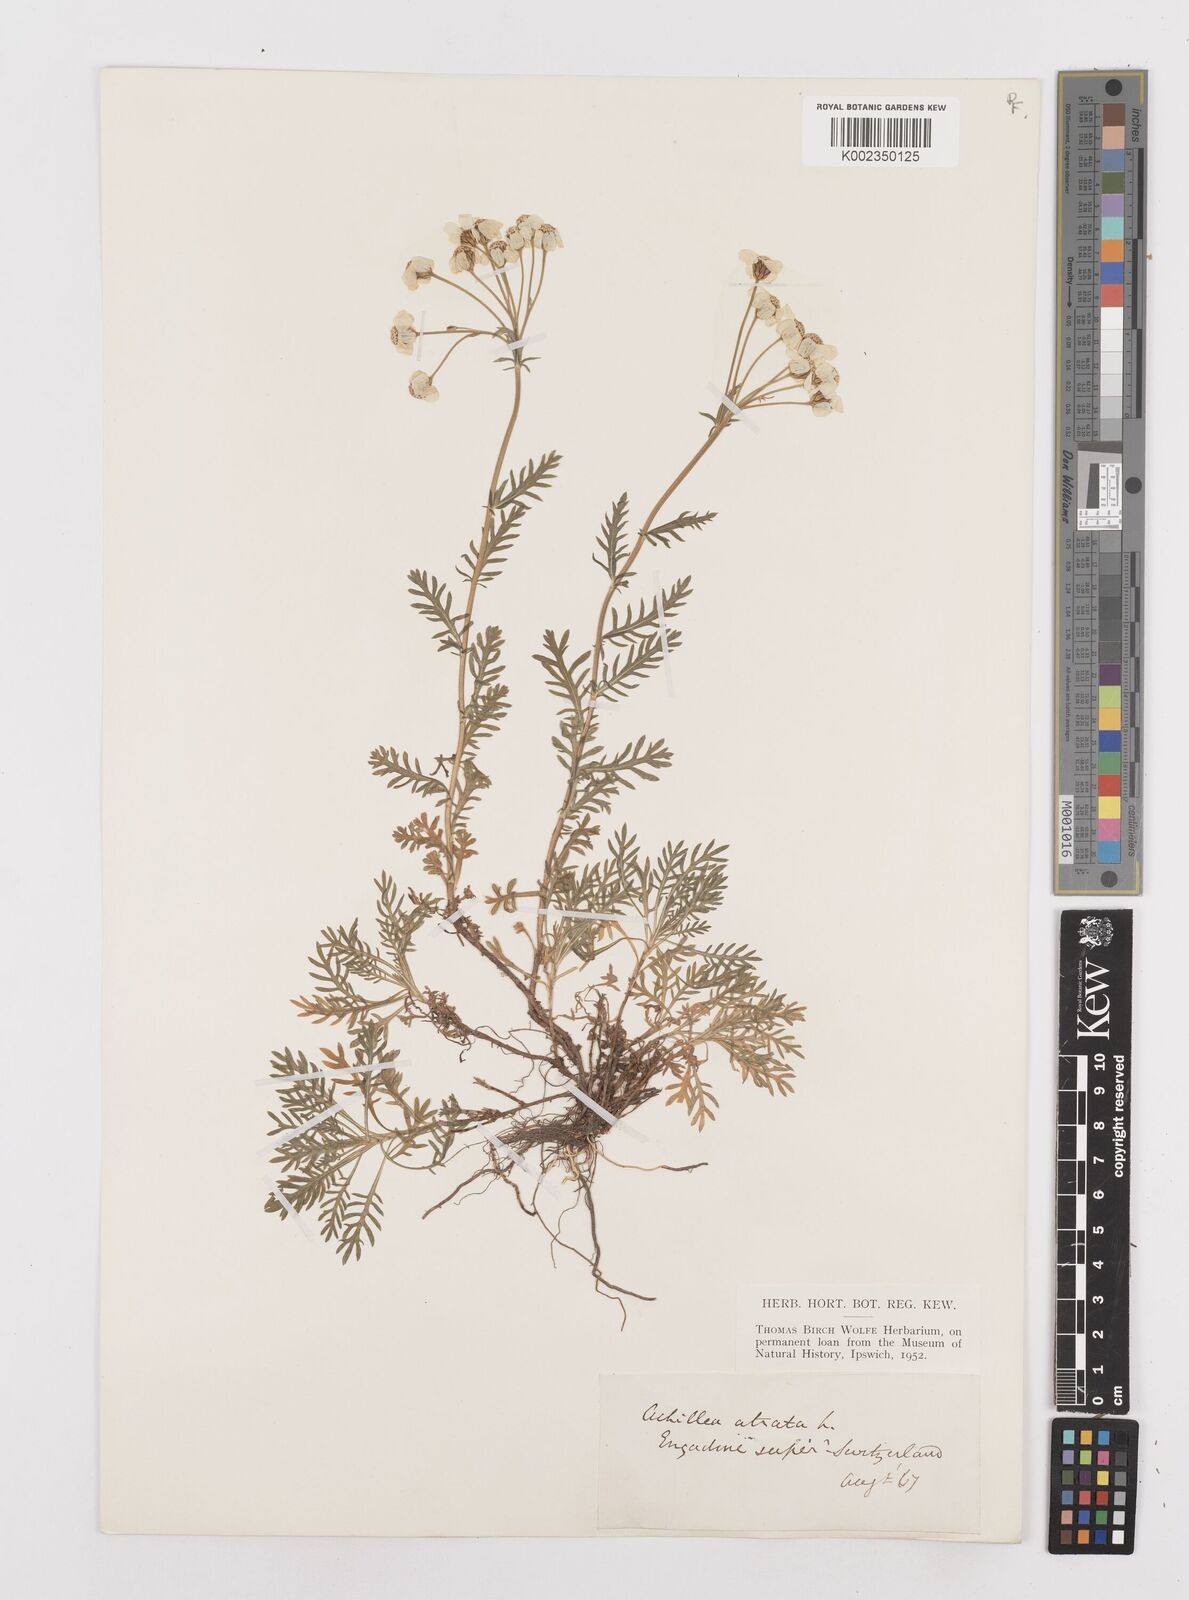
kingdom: Plantae
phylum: Tracheophyta
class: Magnoliopsida
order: Asterales
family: Asteraceae
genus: Achillea
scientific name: Achillea atrata
